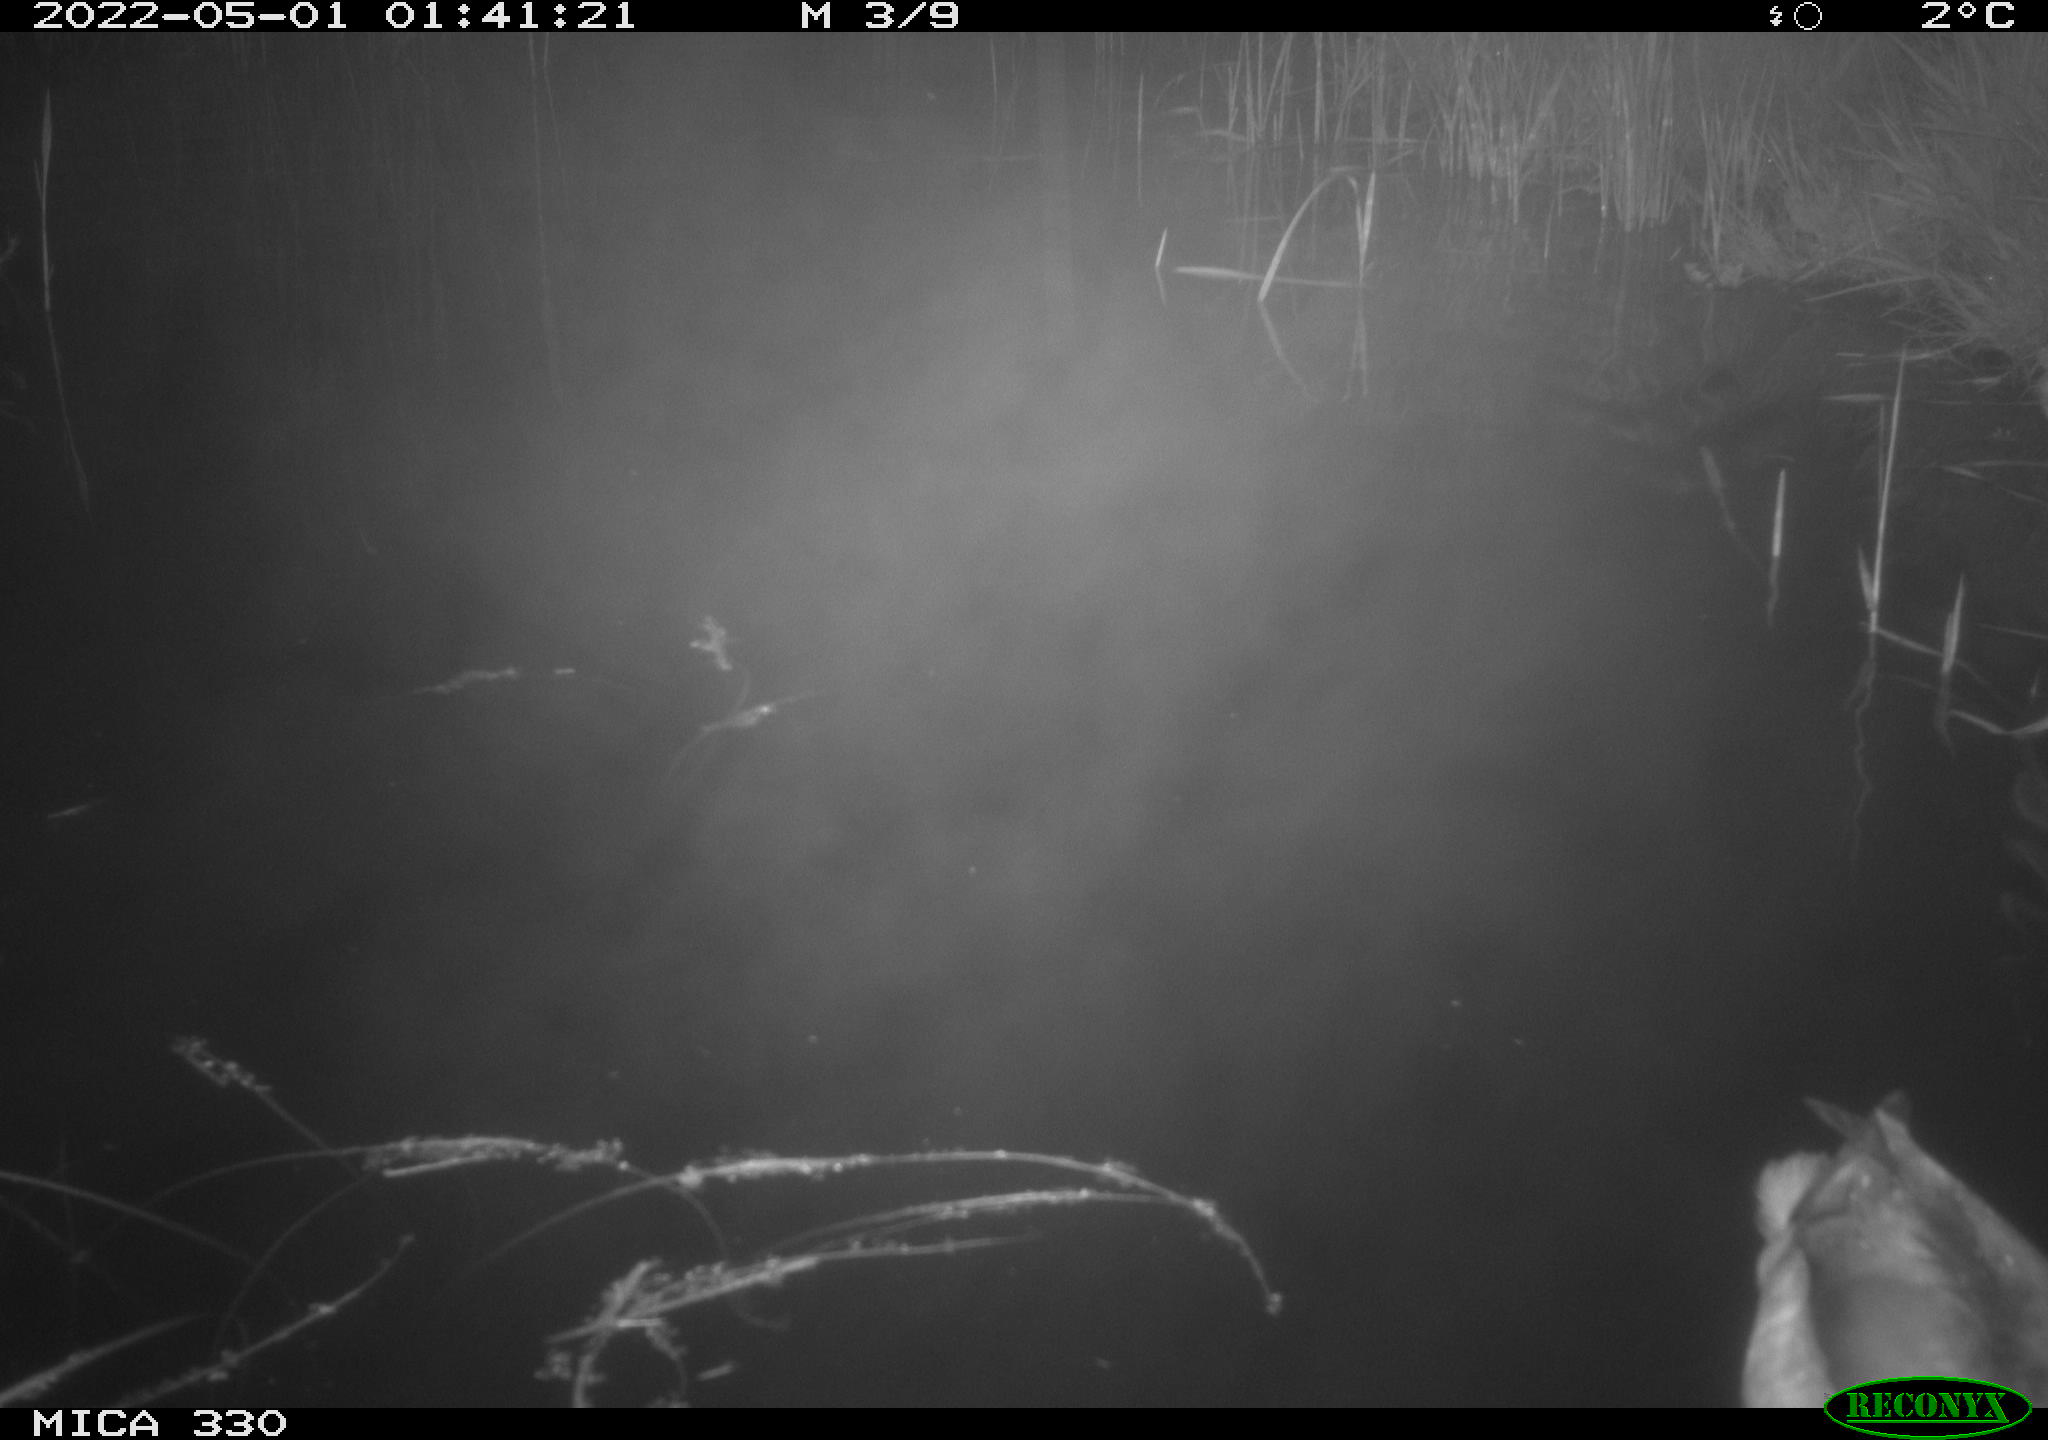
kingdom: Animalia
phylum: Chordata
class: Aves
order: Anseriformes
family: Anatidae
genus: Anas
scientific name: Anas platyrhynchos
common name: Mallard
